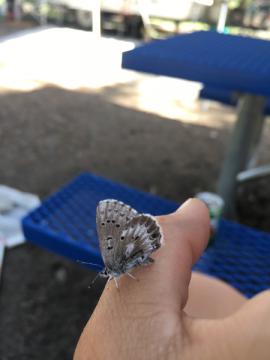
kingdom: Animalia
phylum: Arthropoda
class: Insecta
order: Lepidoptera
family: Lycaenidae
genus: Glaucopsyche
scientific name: Glaucopsyche piasus
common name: Arrowhead Blue
